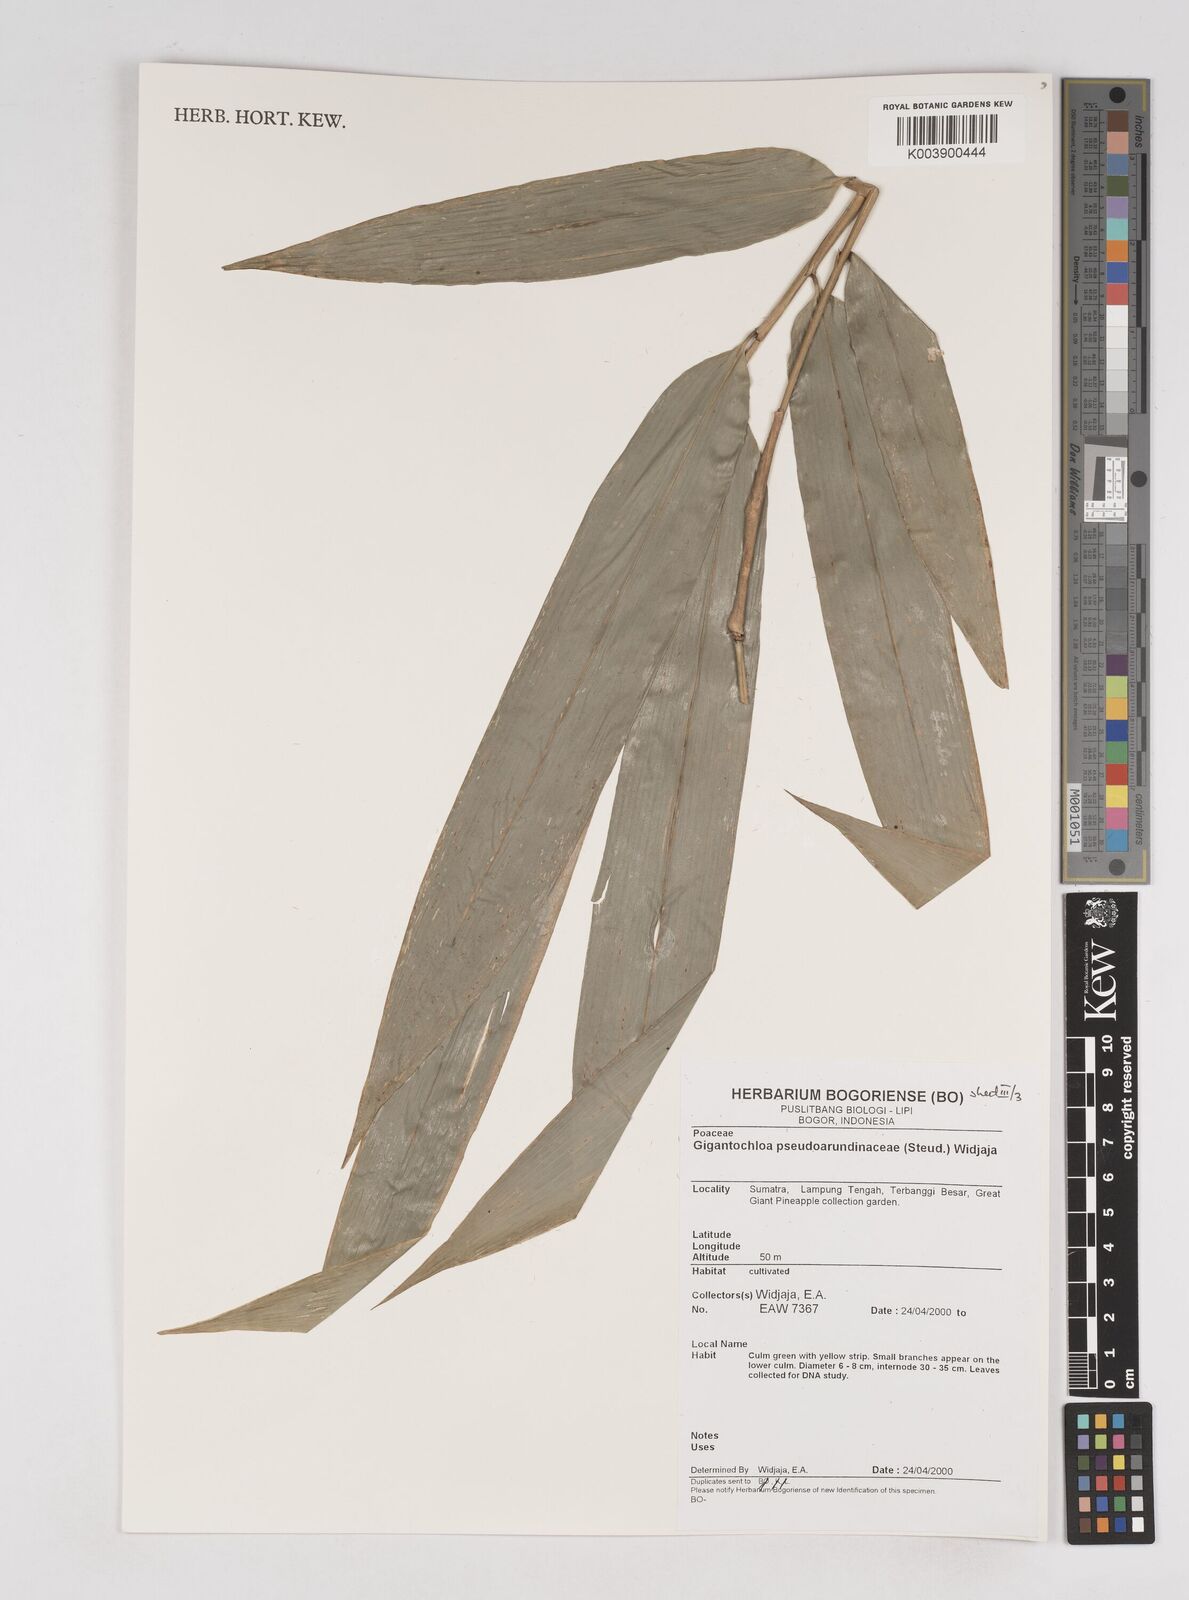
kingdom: Plantae
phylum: Tracheophyta
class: Liliopsida
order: Poales
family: Poaceae
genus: Gigantochloa
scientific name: Gigantochloa verticillata
